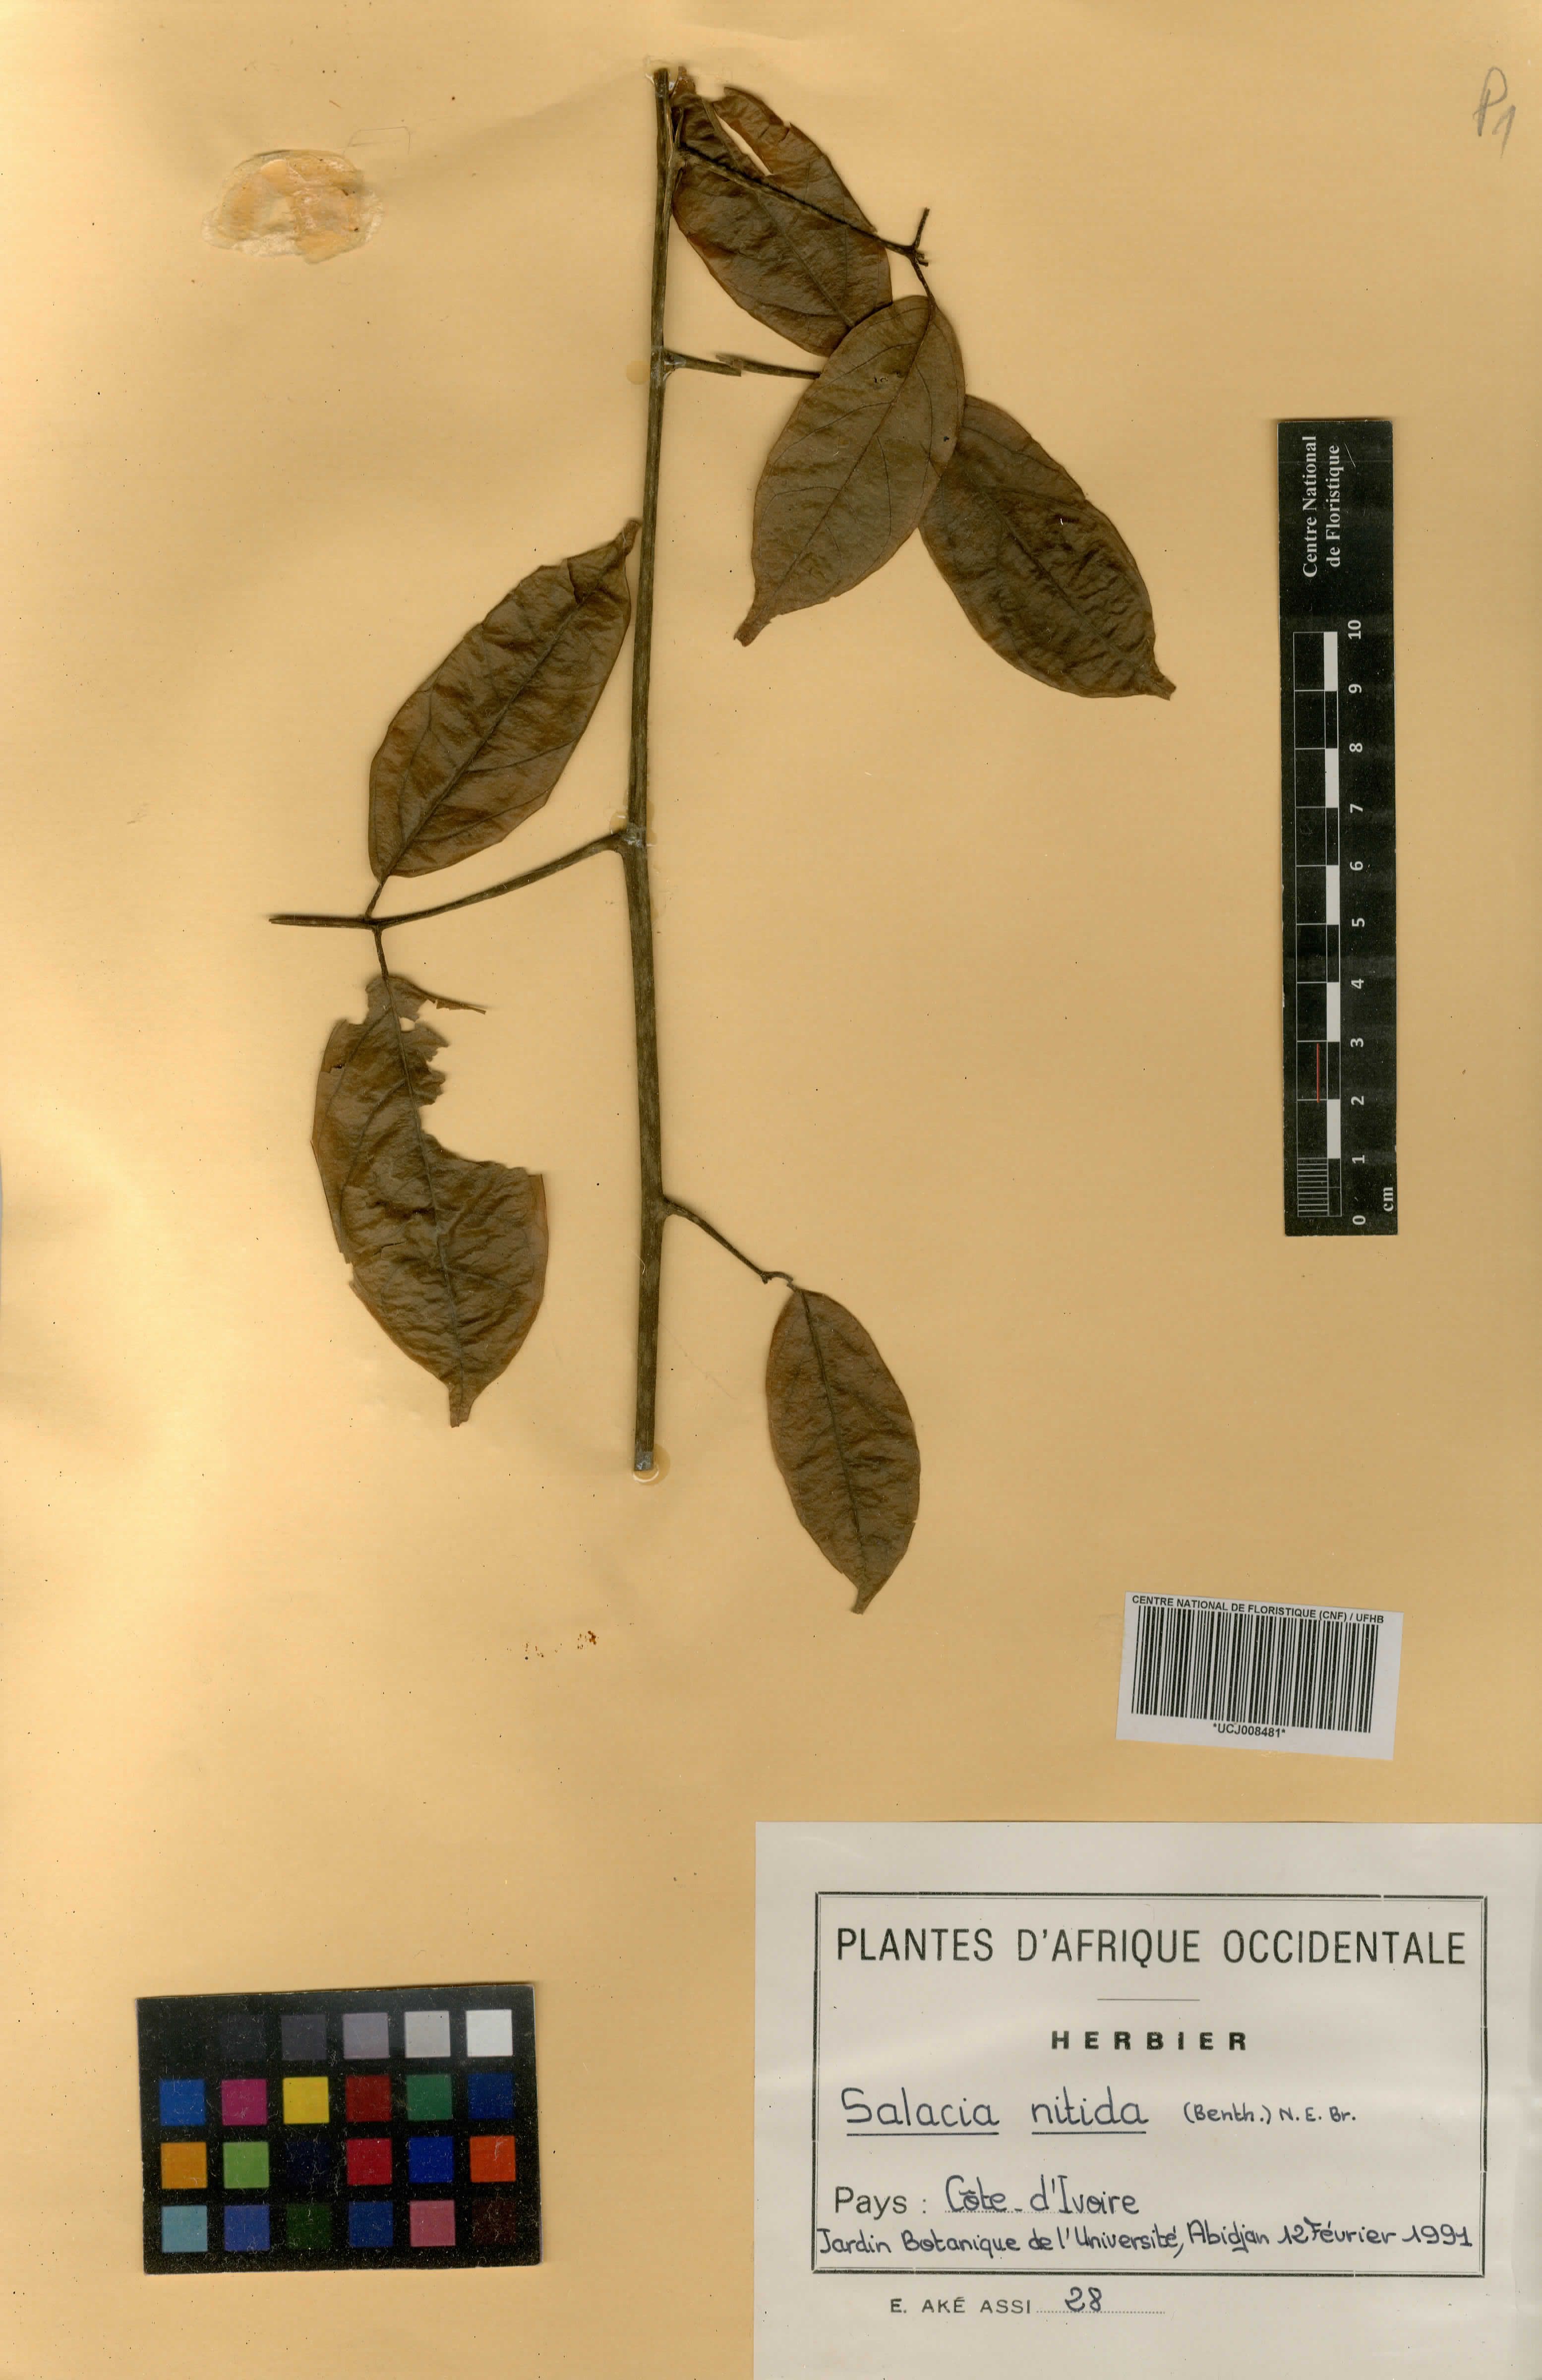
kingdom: Plantae
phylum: Tracheophyta
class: Magnoliopsida
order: Celastrales
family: Celastraceae
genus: Salacia
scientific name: Salacia nitida
